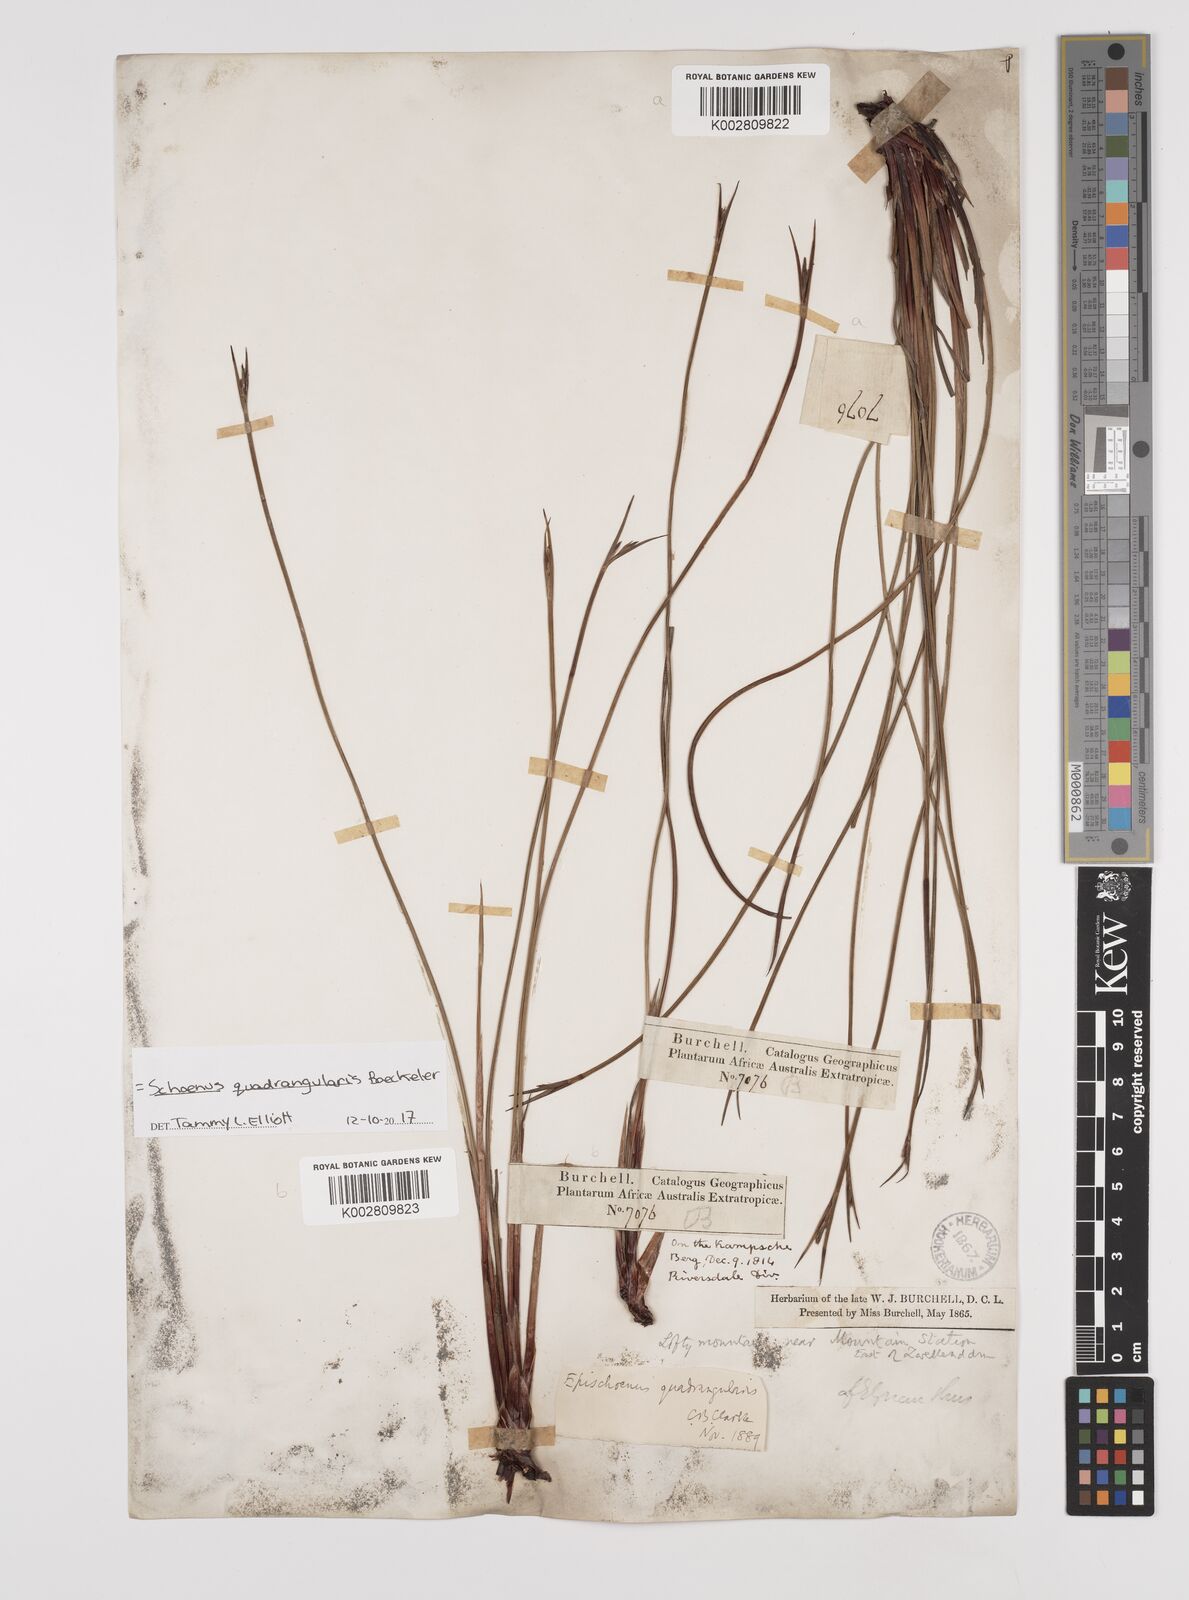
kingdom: Plantae
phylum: Tracheophyta
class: Liliopsida
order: Poales
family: Cyperaceae
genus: Schoenus
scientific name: Schoenus quadrangularis
